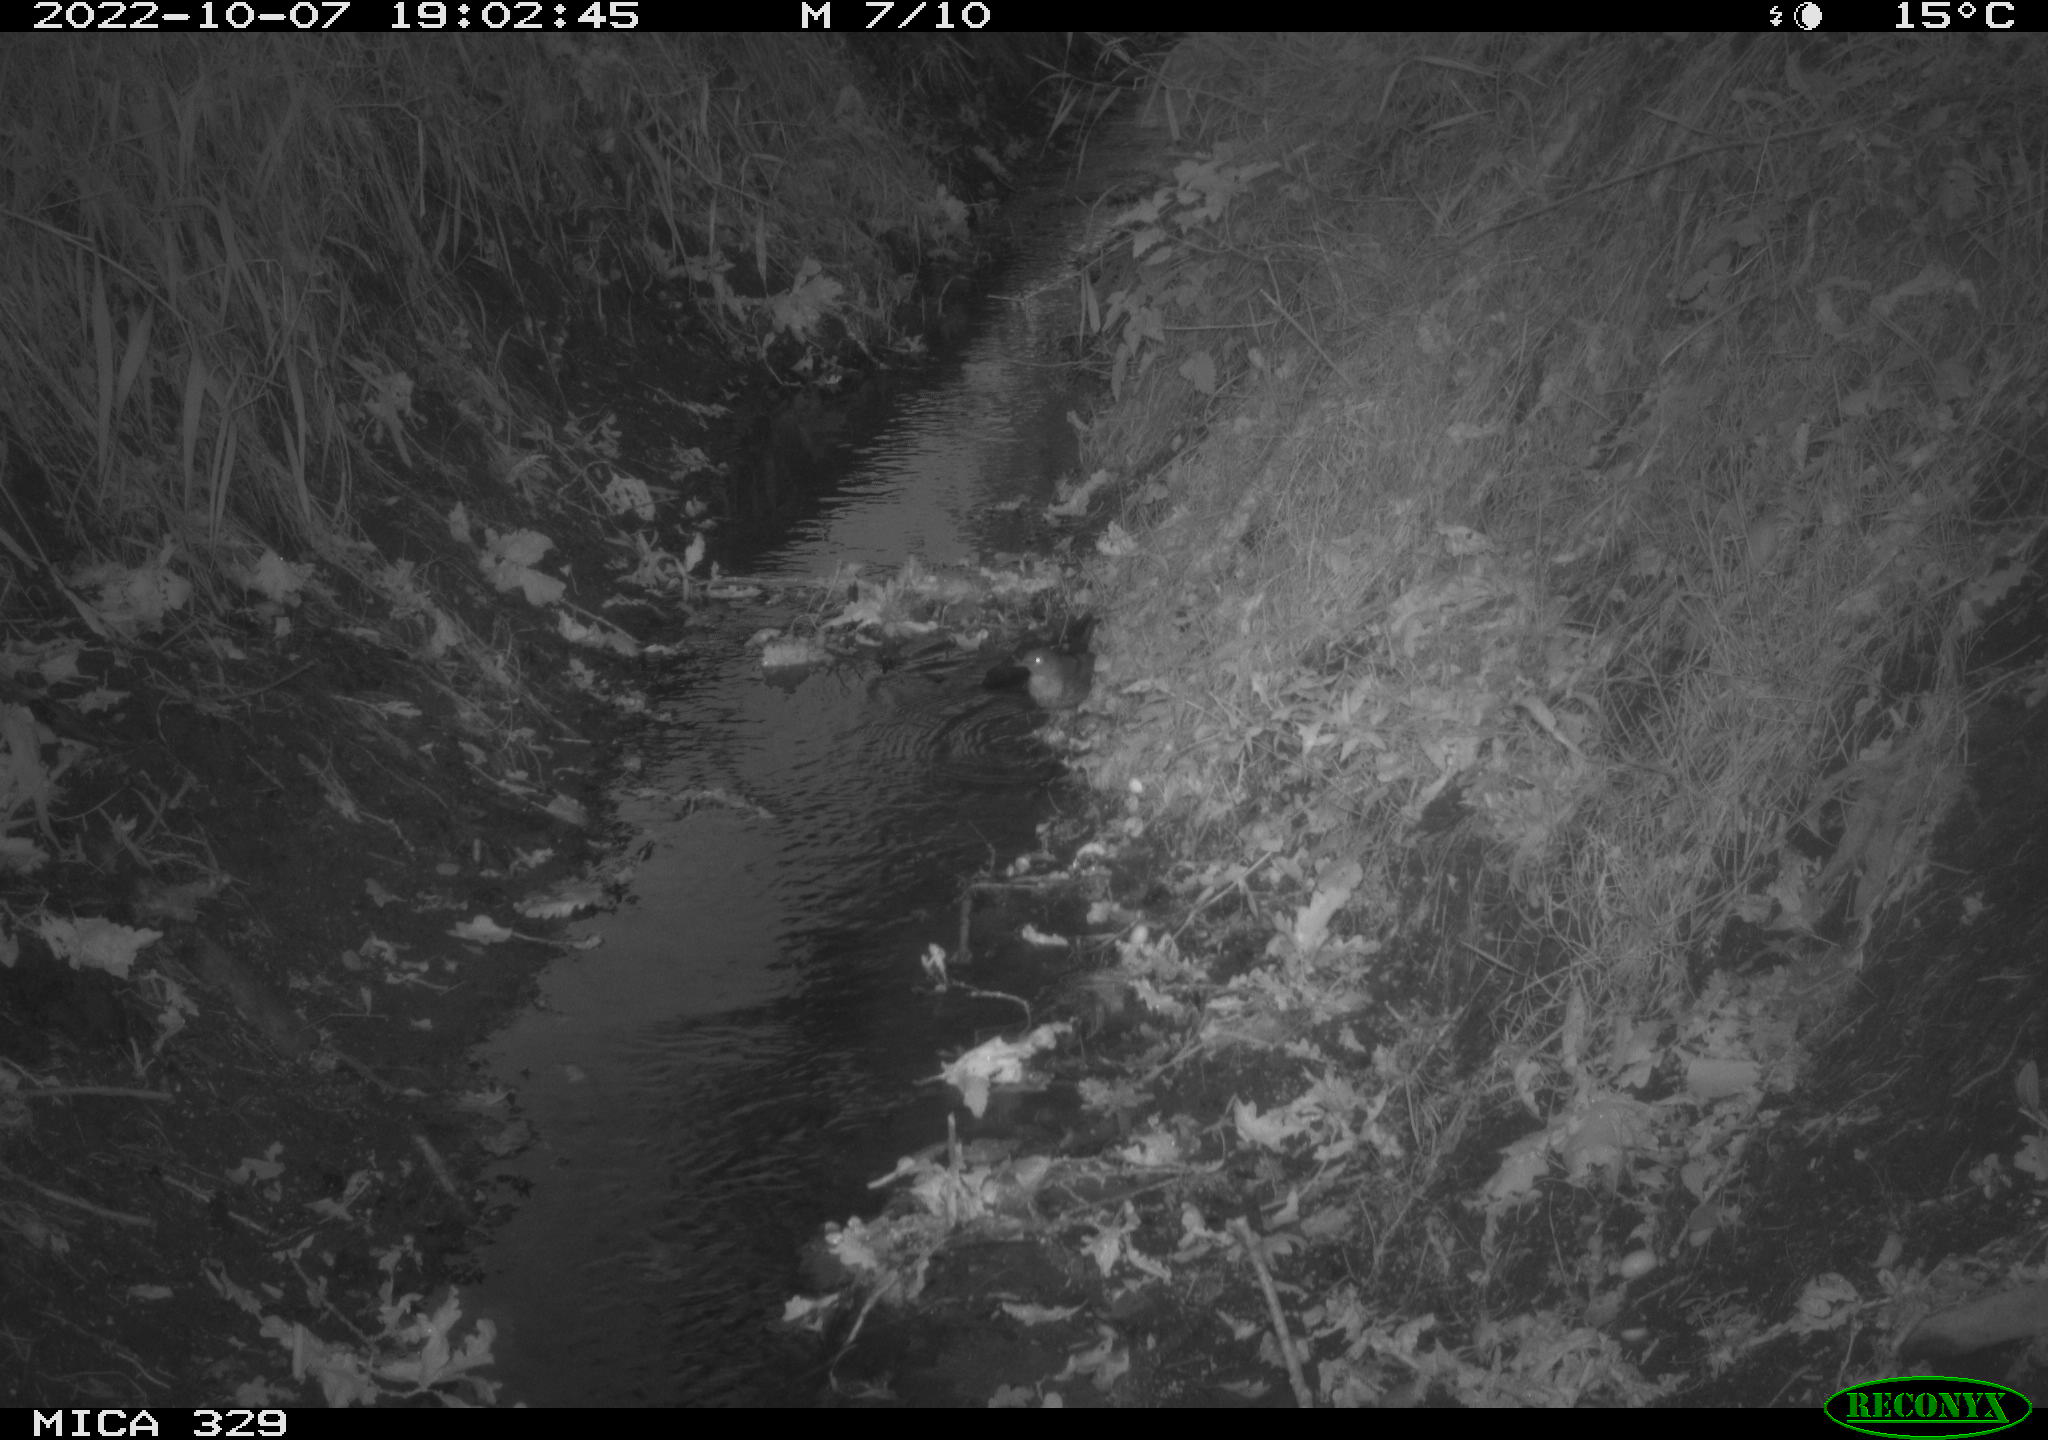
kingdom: Animalia
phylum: Chordata
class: Aves
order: Passeriformes
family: Turdidae
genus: Turdus
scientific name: Turdus merula
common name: Common blackbird
